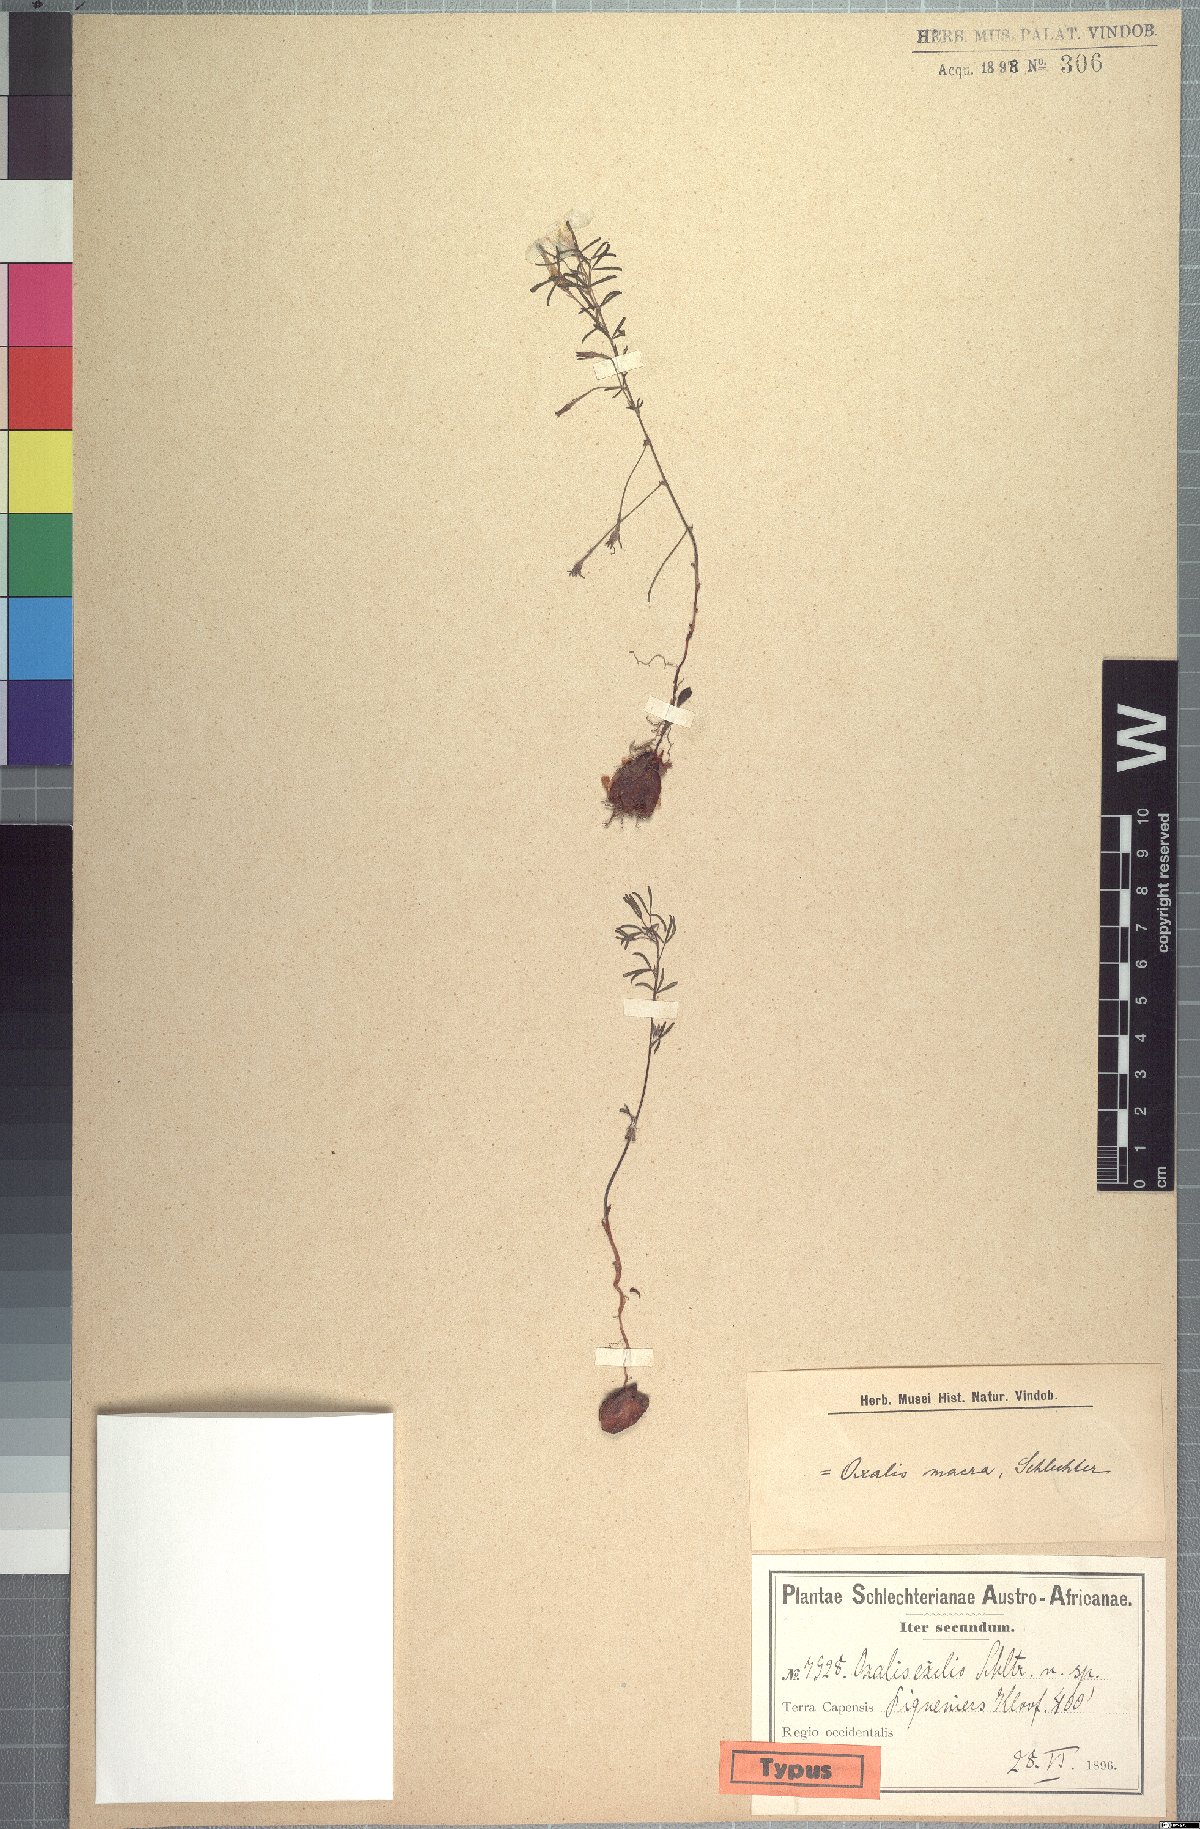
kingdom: Plantae
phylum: Tracheophyta
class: Magnoliopsida
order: Oxalidales
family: Oxalidaceae
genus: Oxalis
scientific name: Oxalis macra
